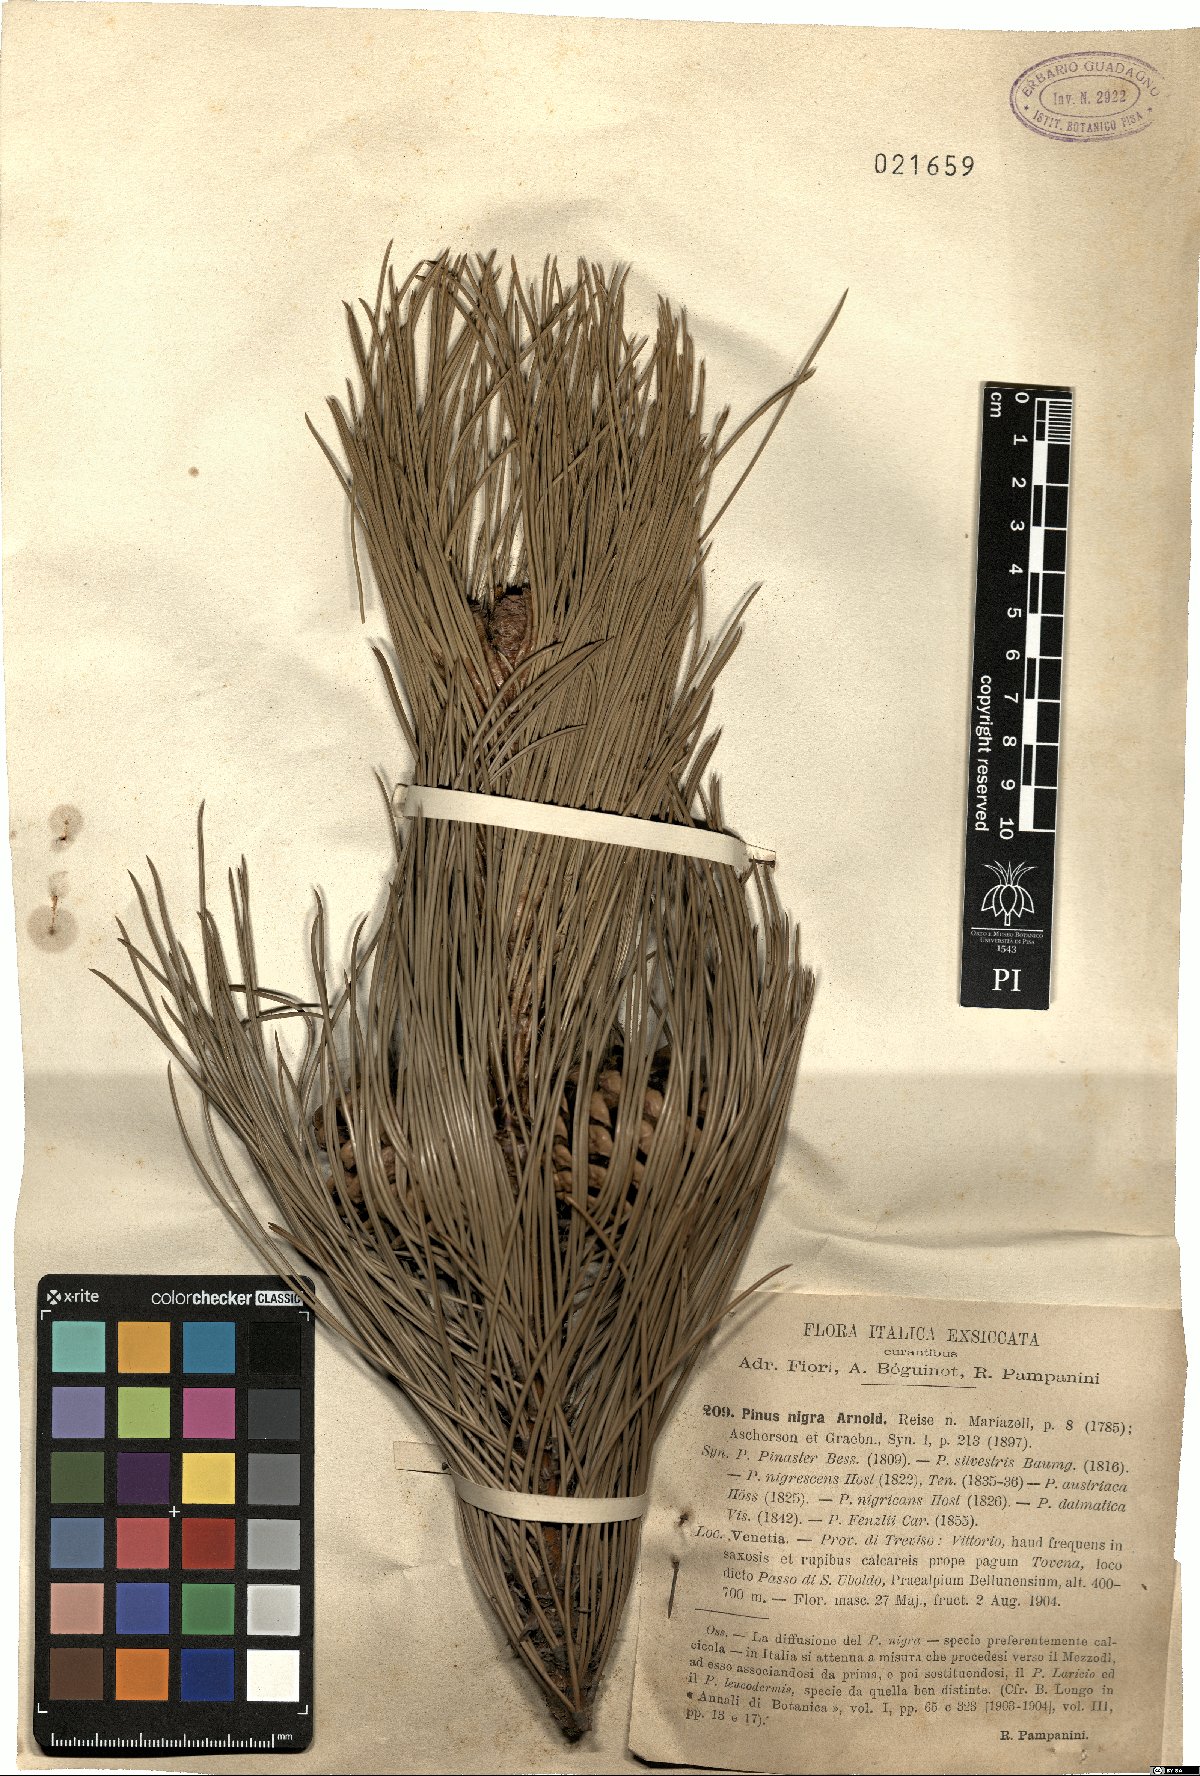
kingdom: Plantae
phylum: Tracheophyta
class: Pinopsida
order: Pinales
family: Pinaceae
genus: Pinus
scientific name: Pinus nigra
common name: Austrian pine
